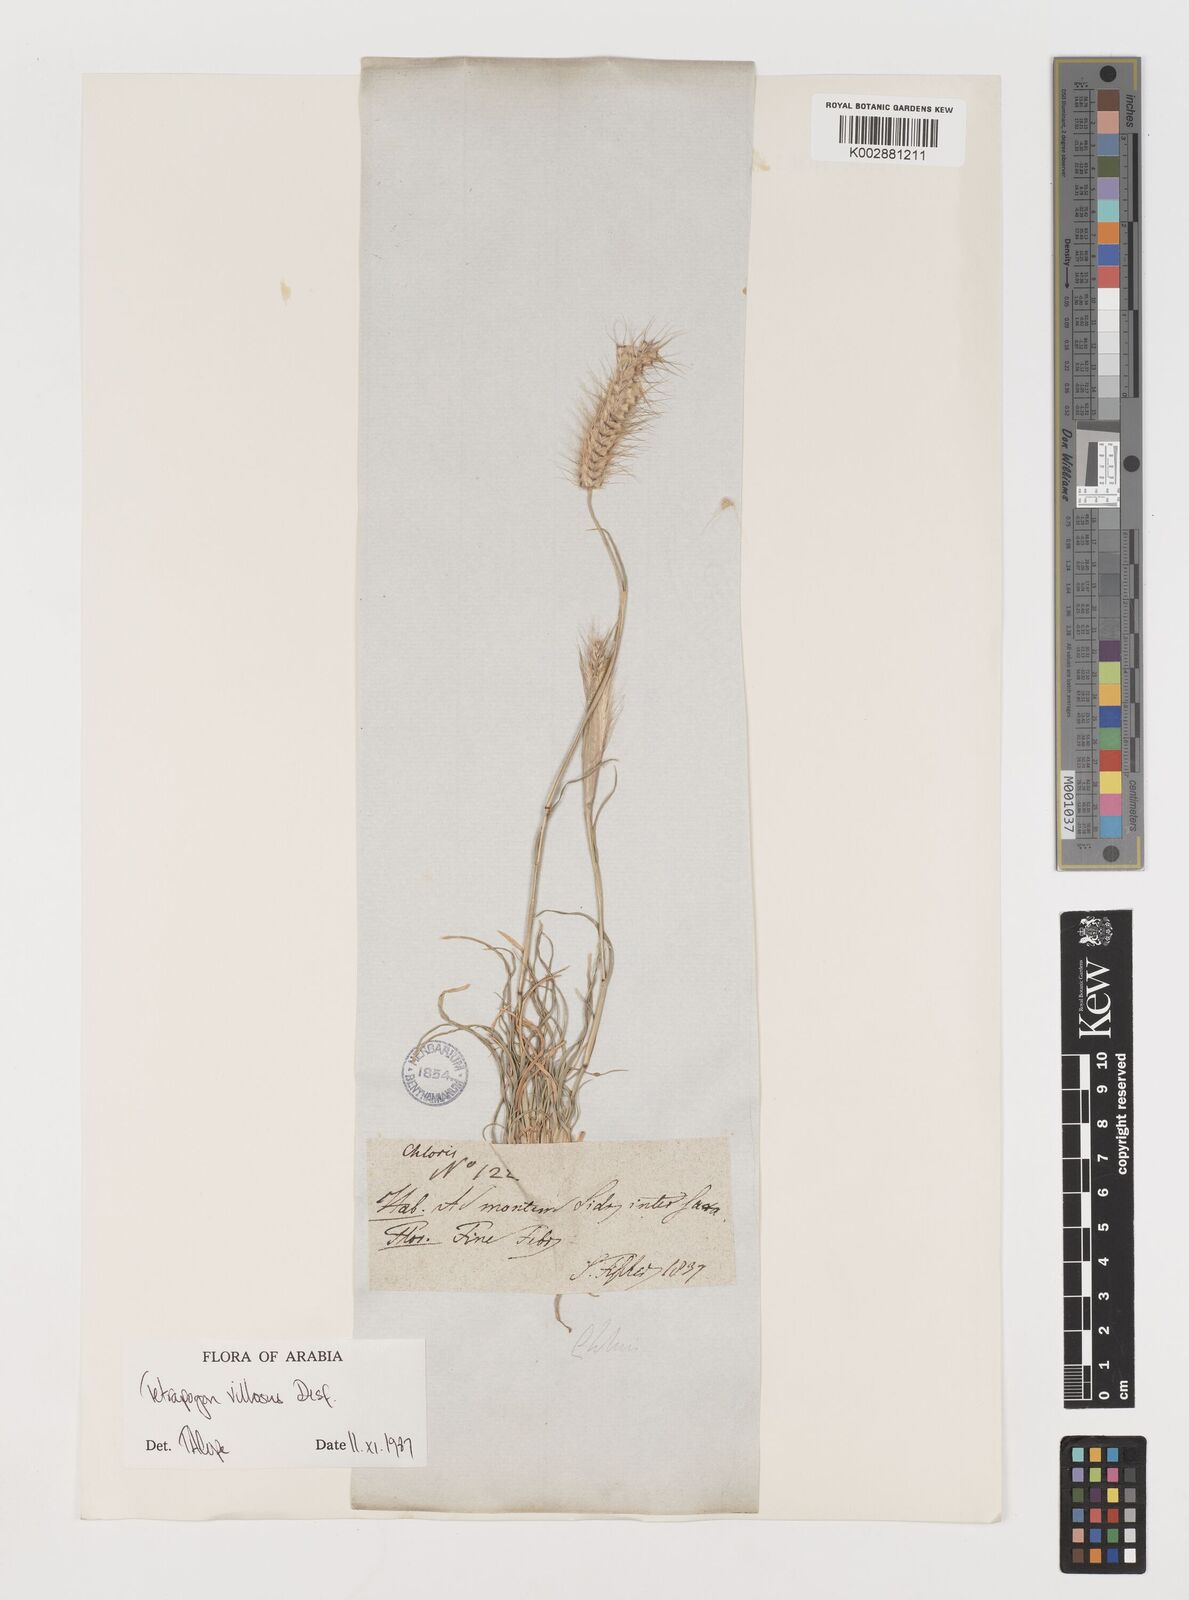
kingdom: Plantae
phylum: Tracheophyta
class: Liliopsida
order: Poales
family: Poaceae
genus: Tetrapogon
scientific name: Tetrapogon villosus
